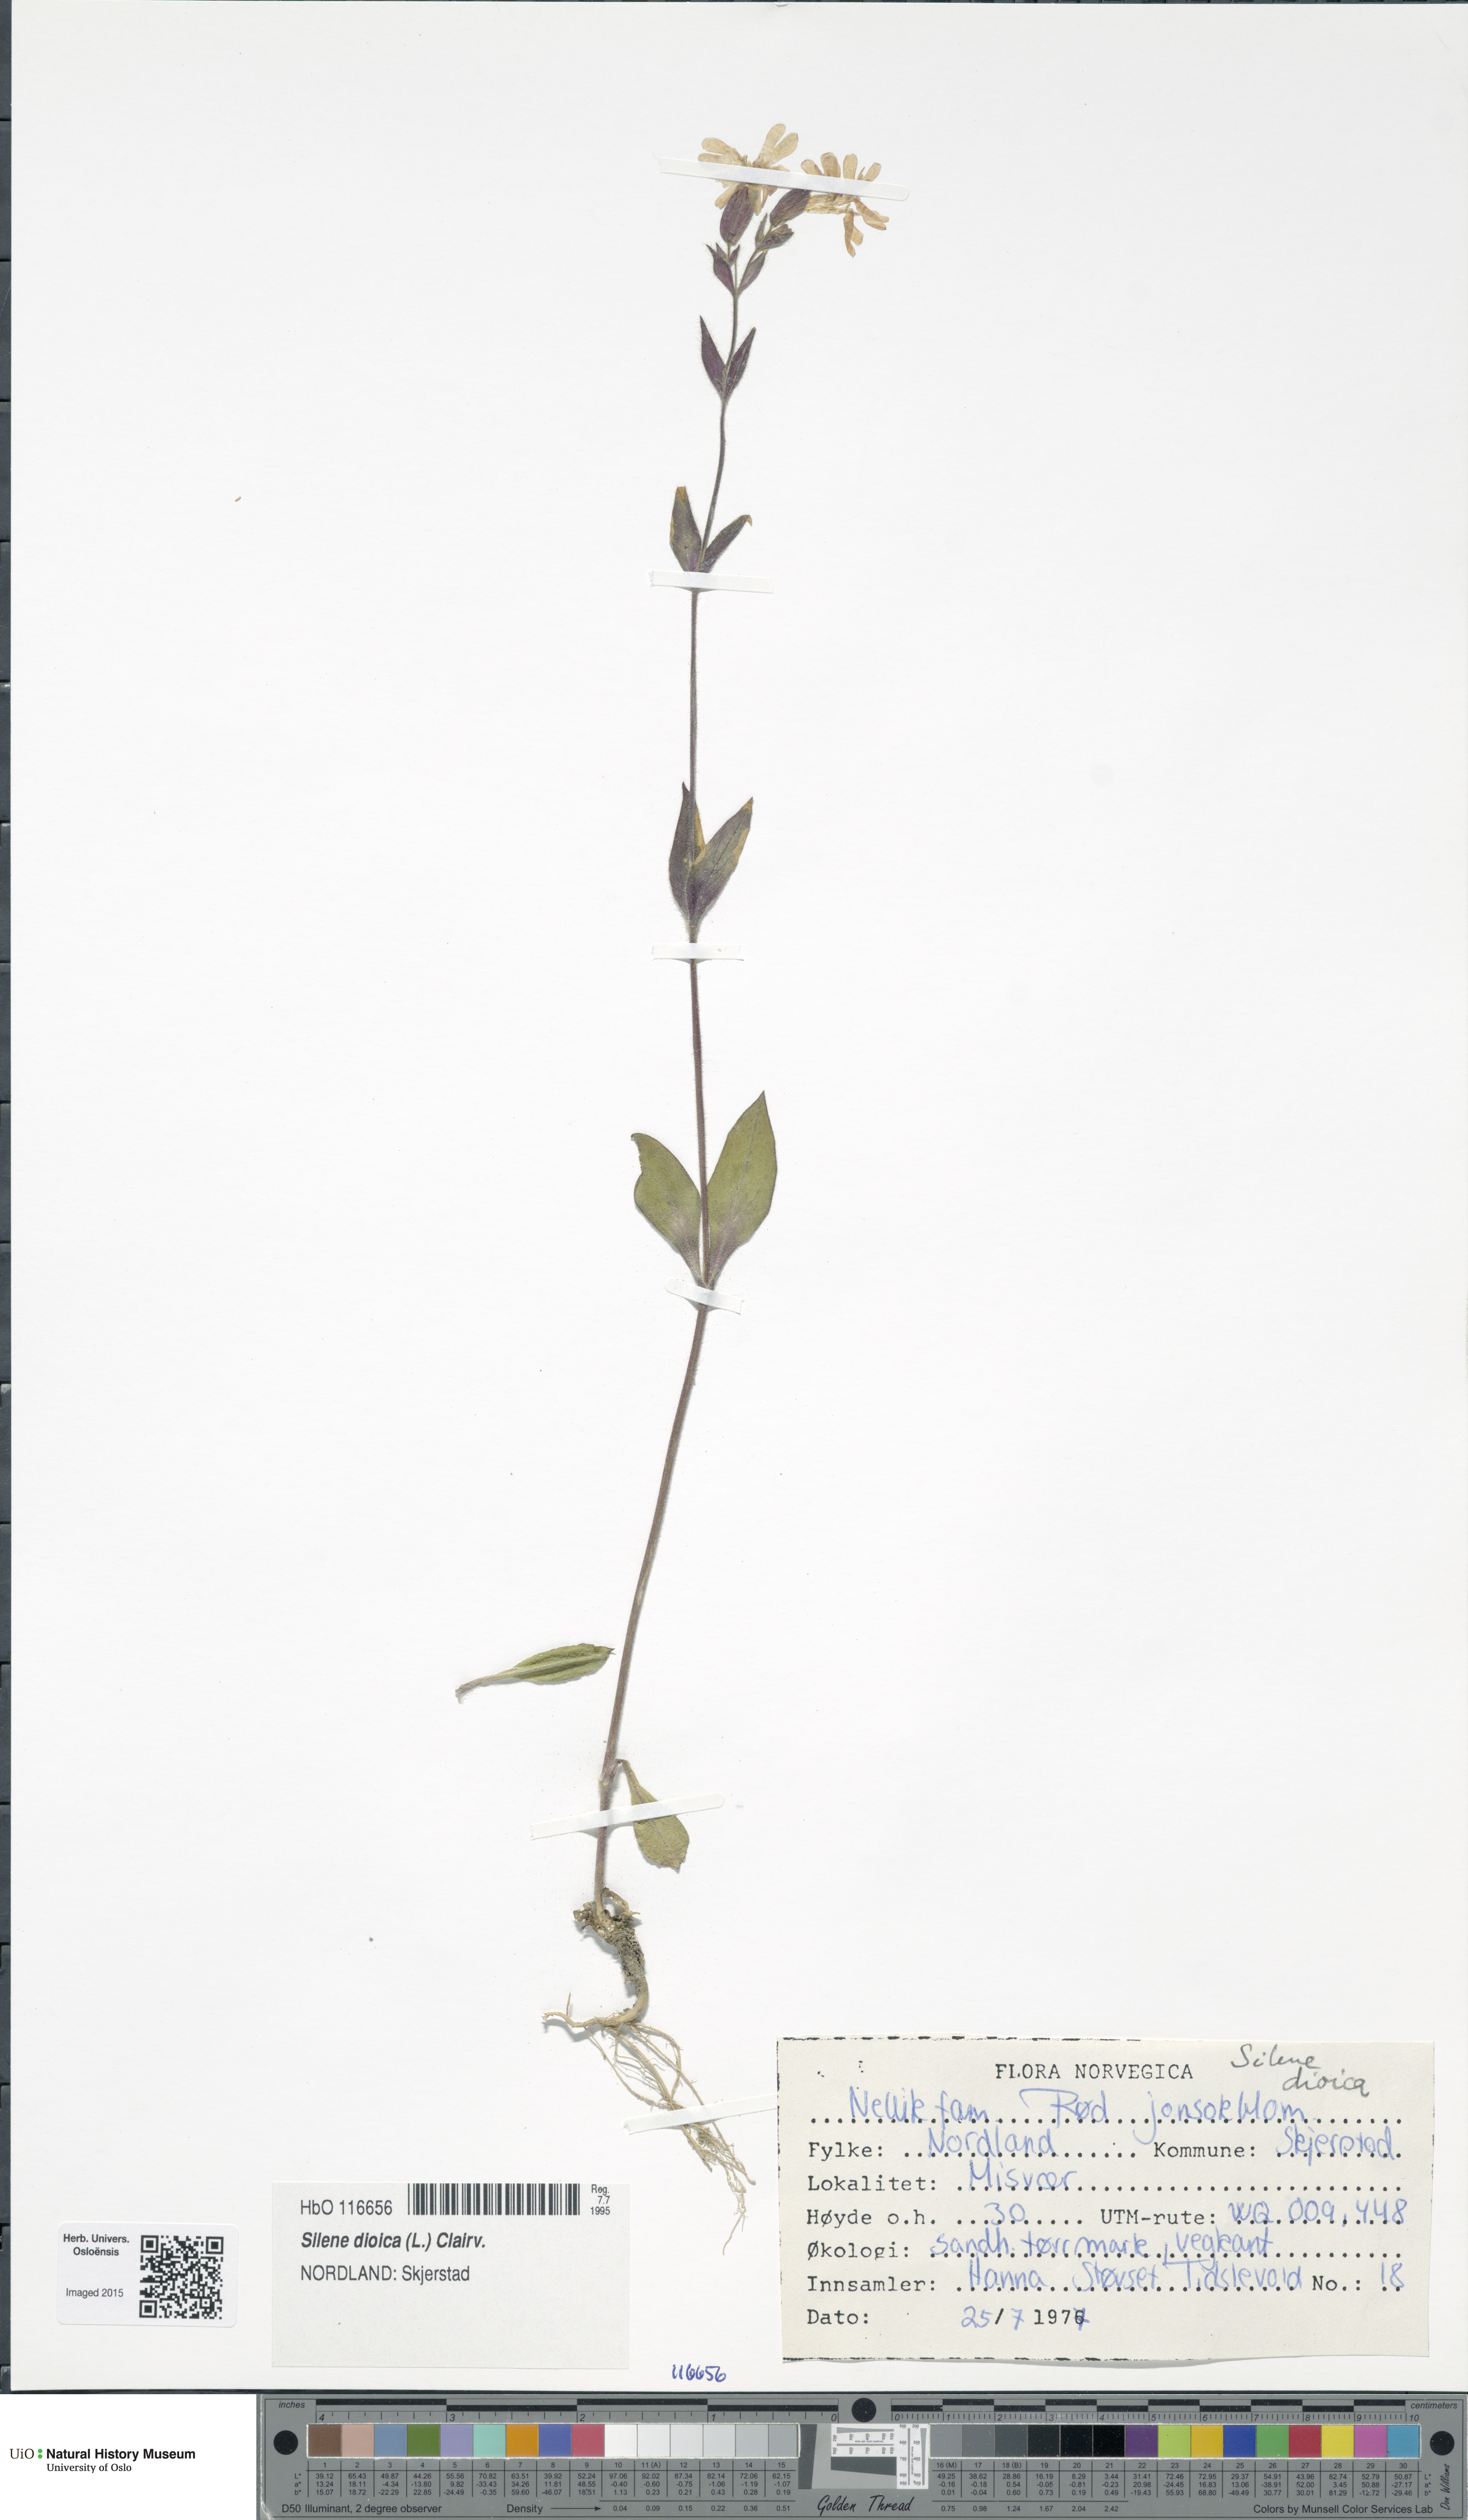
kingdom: Plantae
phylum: Tracheophyta
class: Magnoliopsida
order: Caryophyllales
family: Caryophyllaceae
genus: Silene
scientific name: Silene dioica
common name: Red campion
